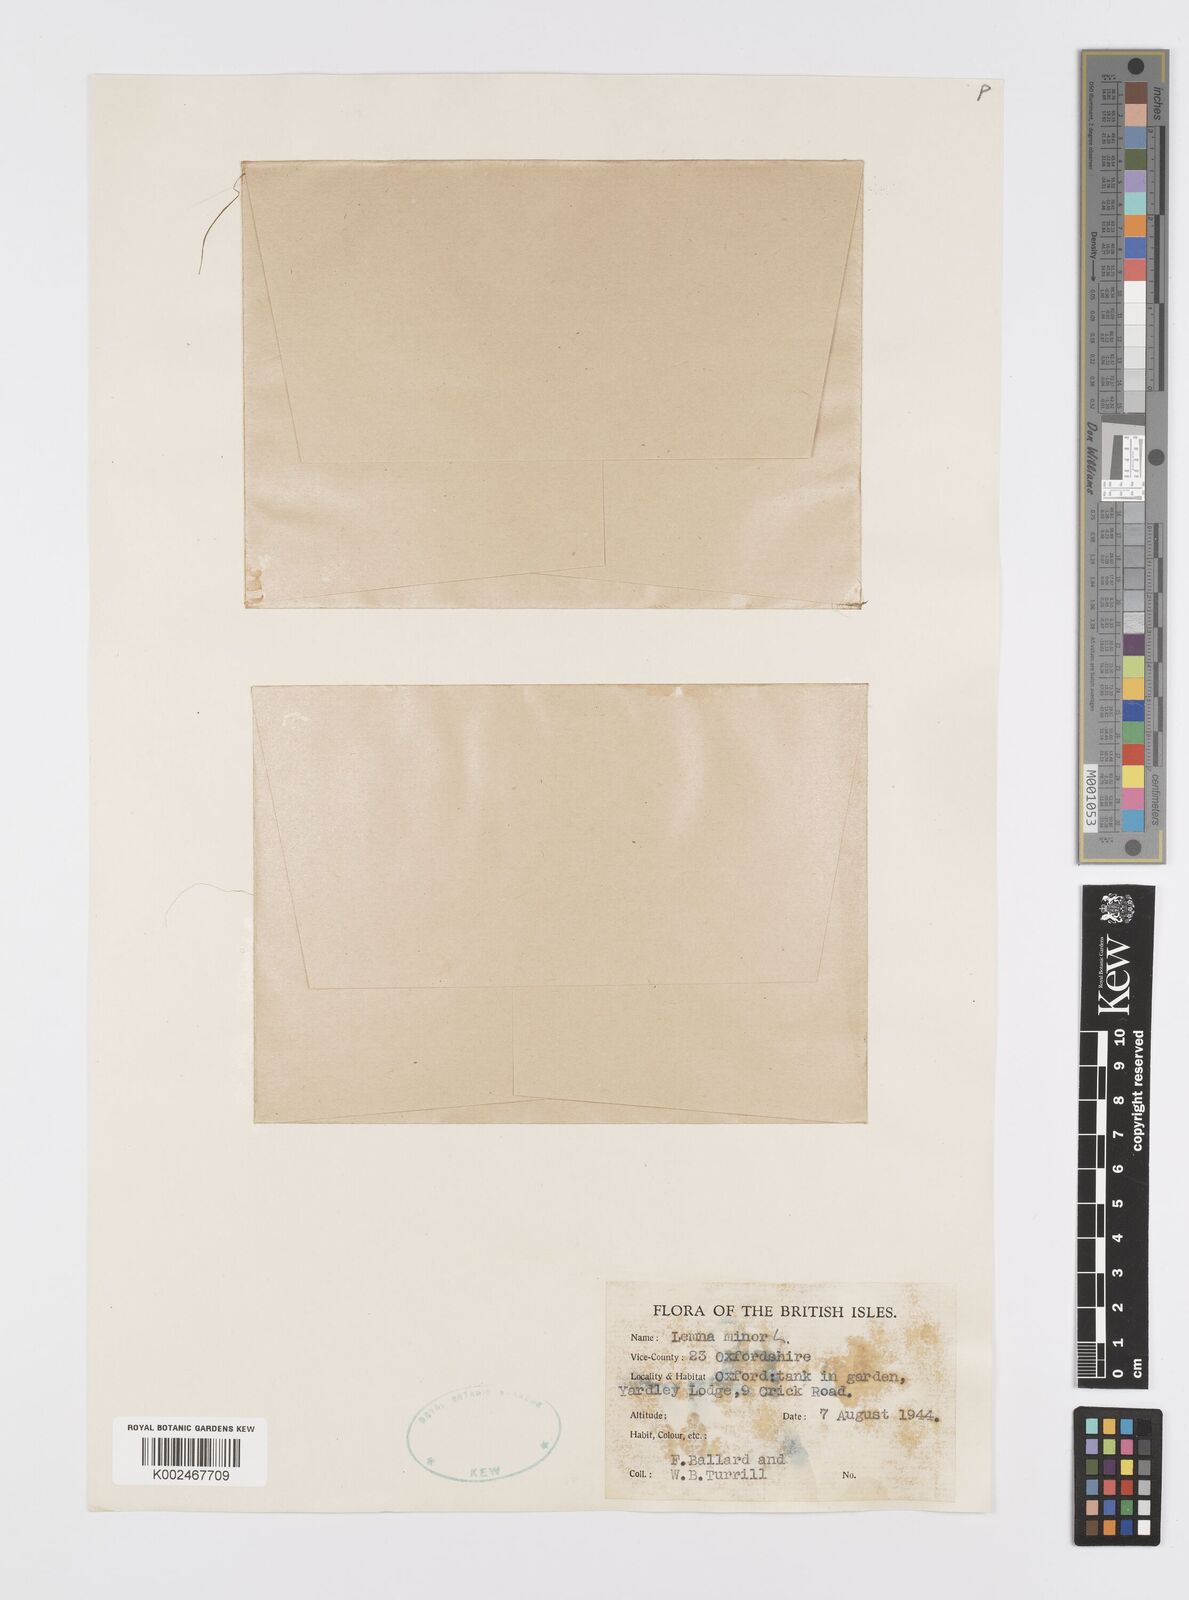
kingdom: Plantae
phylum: Tracheophyta
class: Liliopsida
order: Alismatales
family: Araceae
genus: Lemna
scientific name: Lemna minor
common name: Common duckweed
